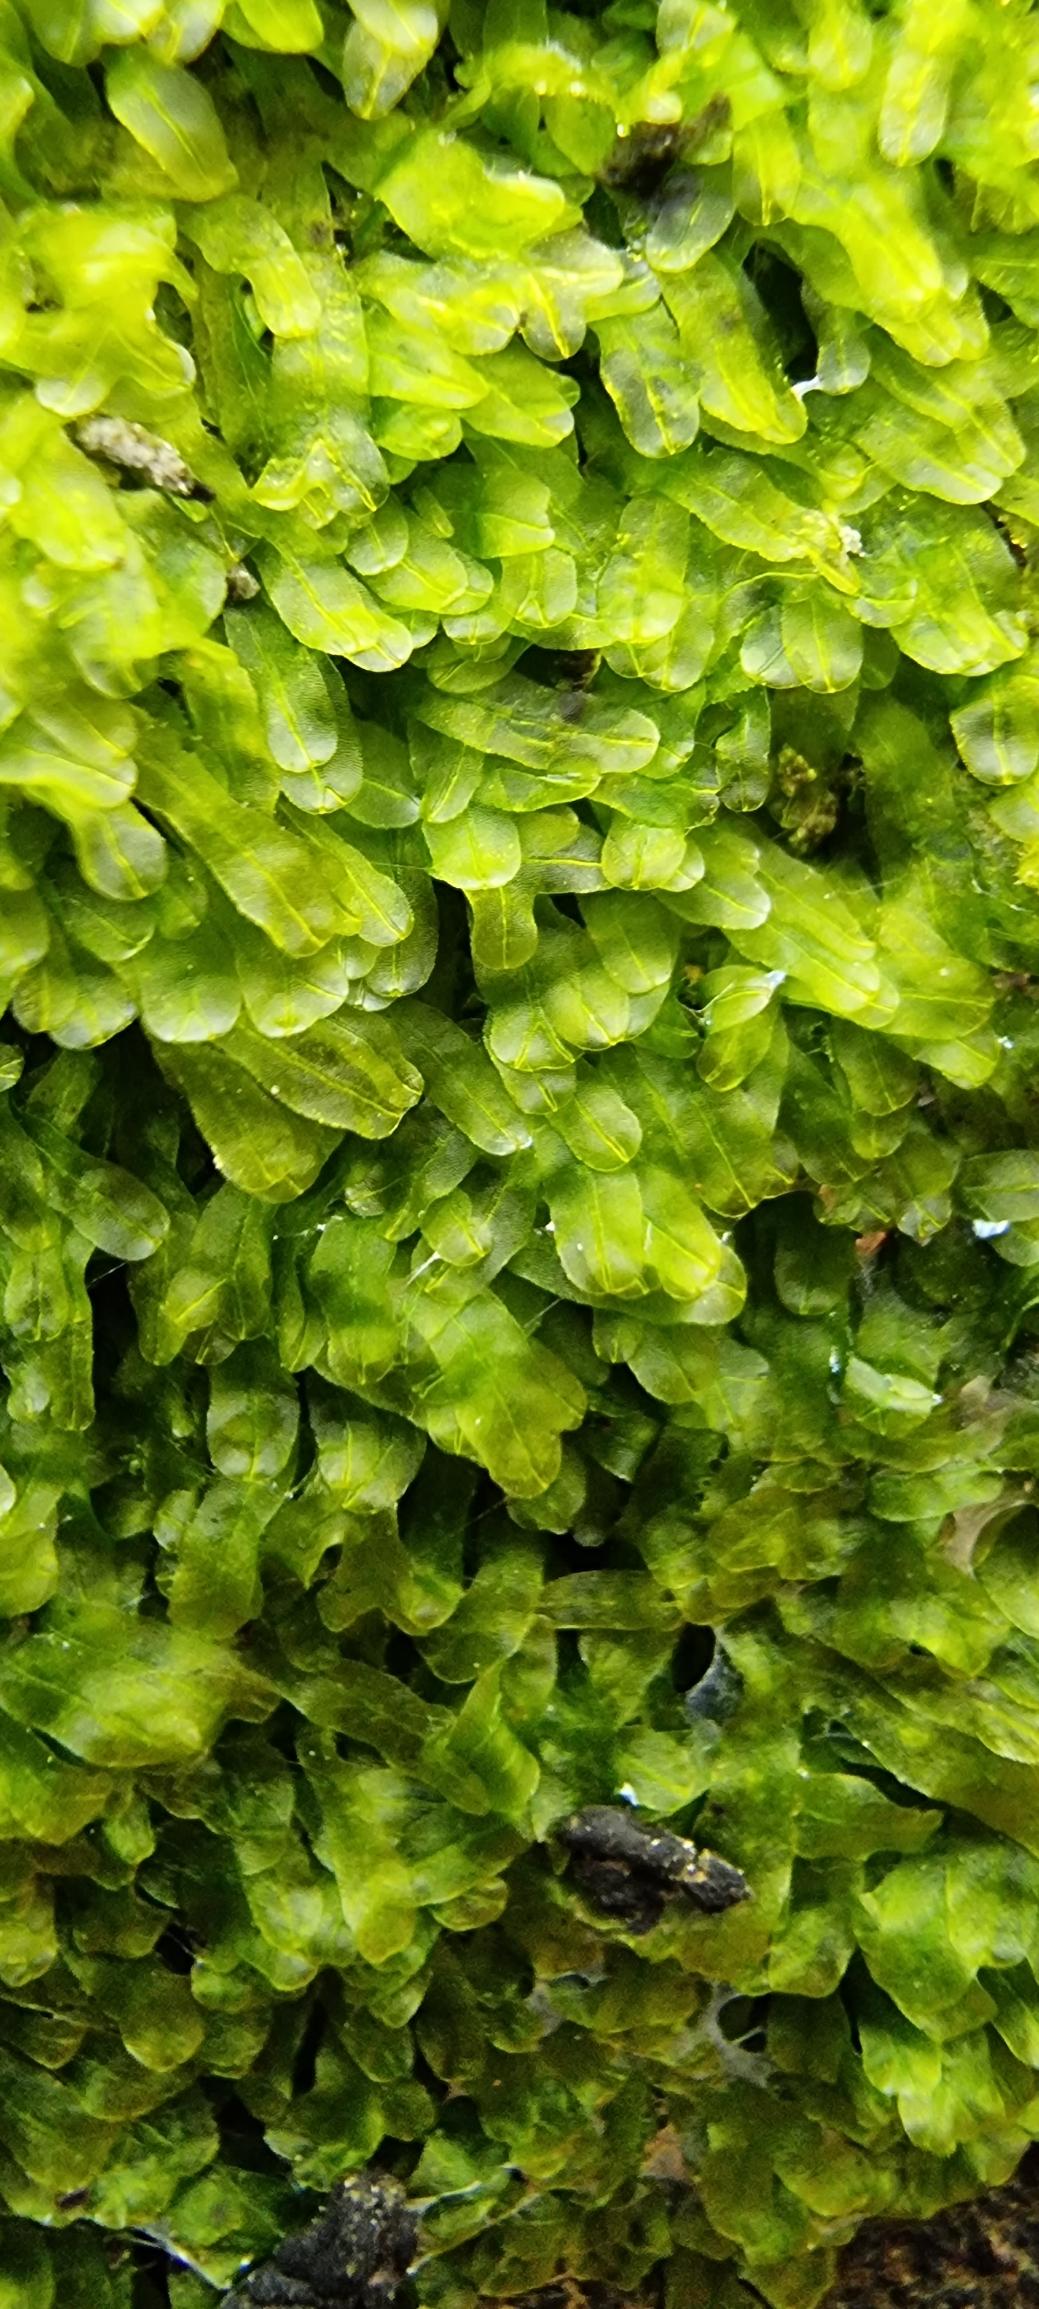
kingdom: Plantae
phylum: Marchantiophyta
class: Jungermanniopsida
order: Metzgeriales
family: Metzgeriaceae
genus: Metzgeria
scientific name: Metzgeria furcata
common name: Almindelig gaffelløv
